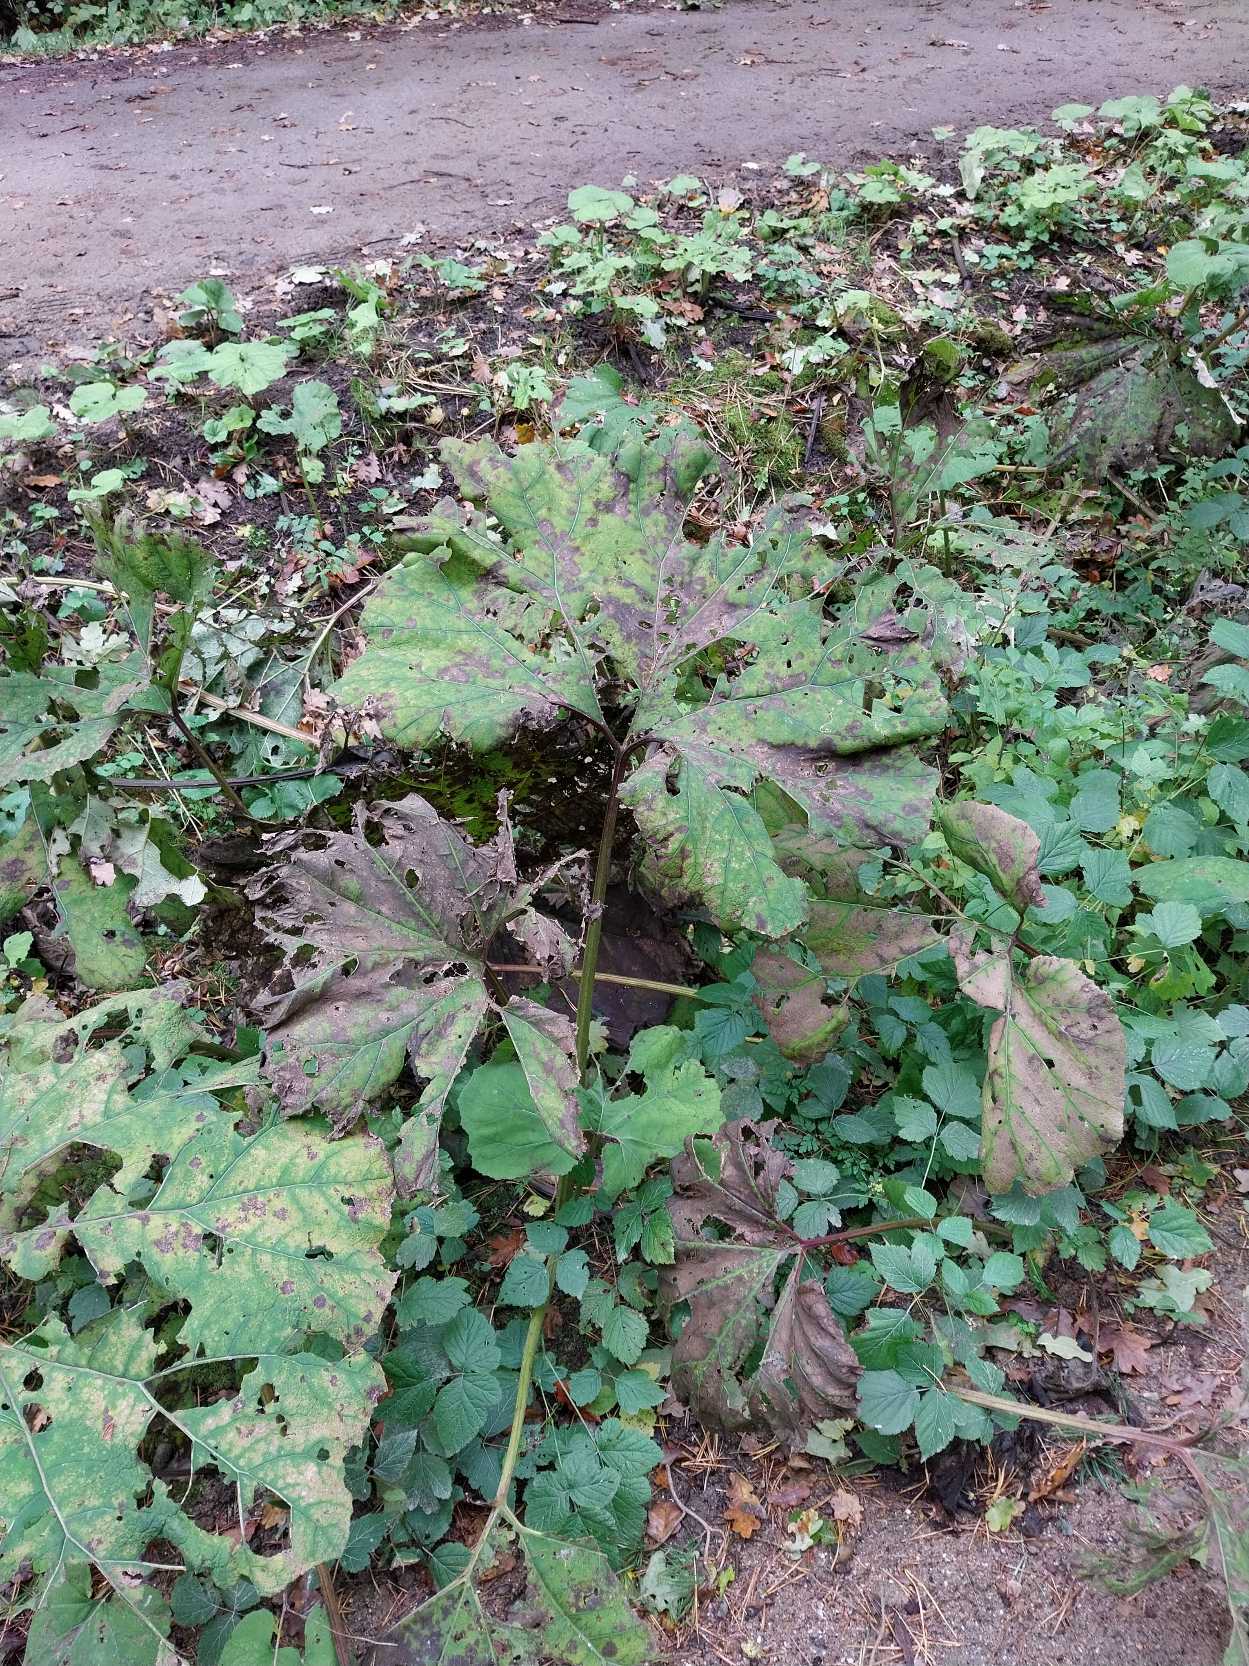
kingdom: Plantae
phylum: Tracheophyta
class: Magnoliopsida
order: Asterales
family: Asteraceae
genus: Petasites
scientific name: Petasites hybridus
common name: Rød hestehov
